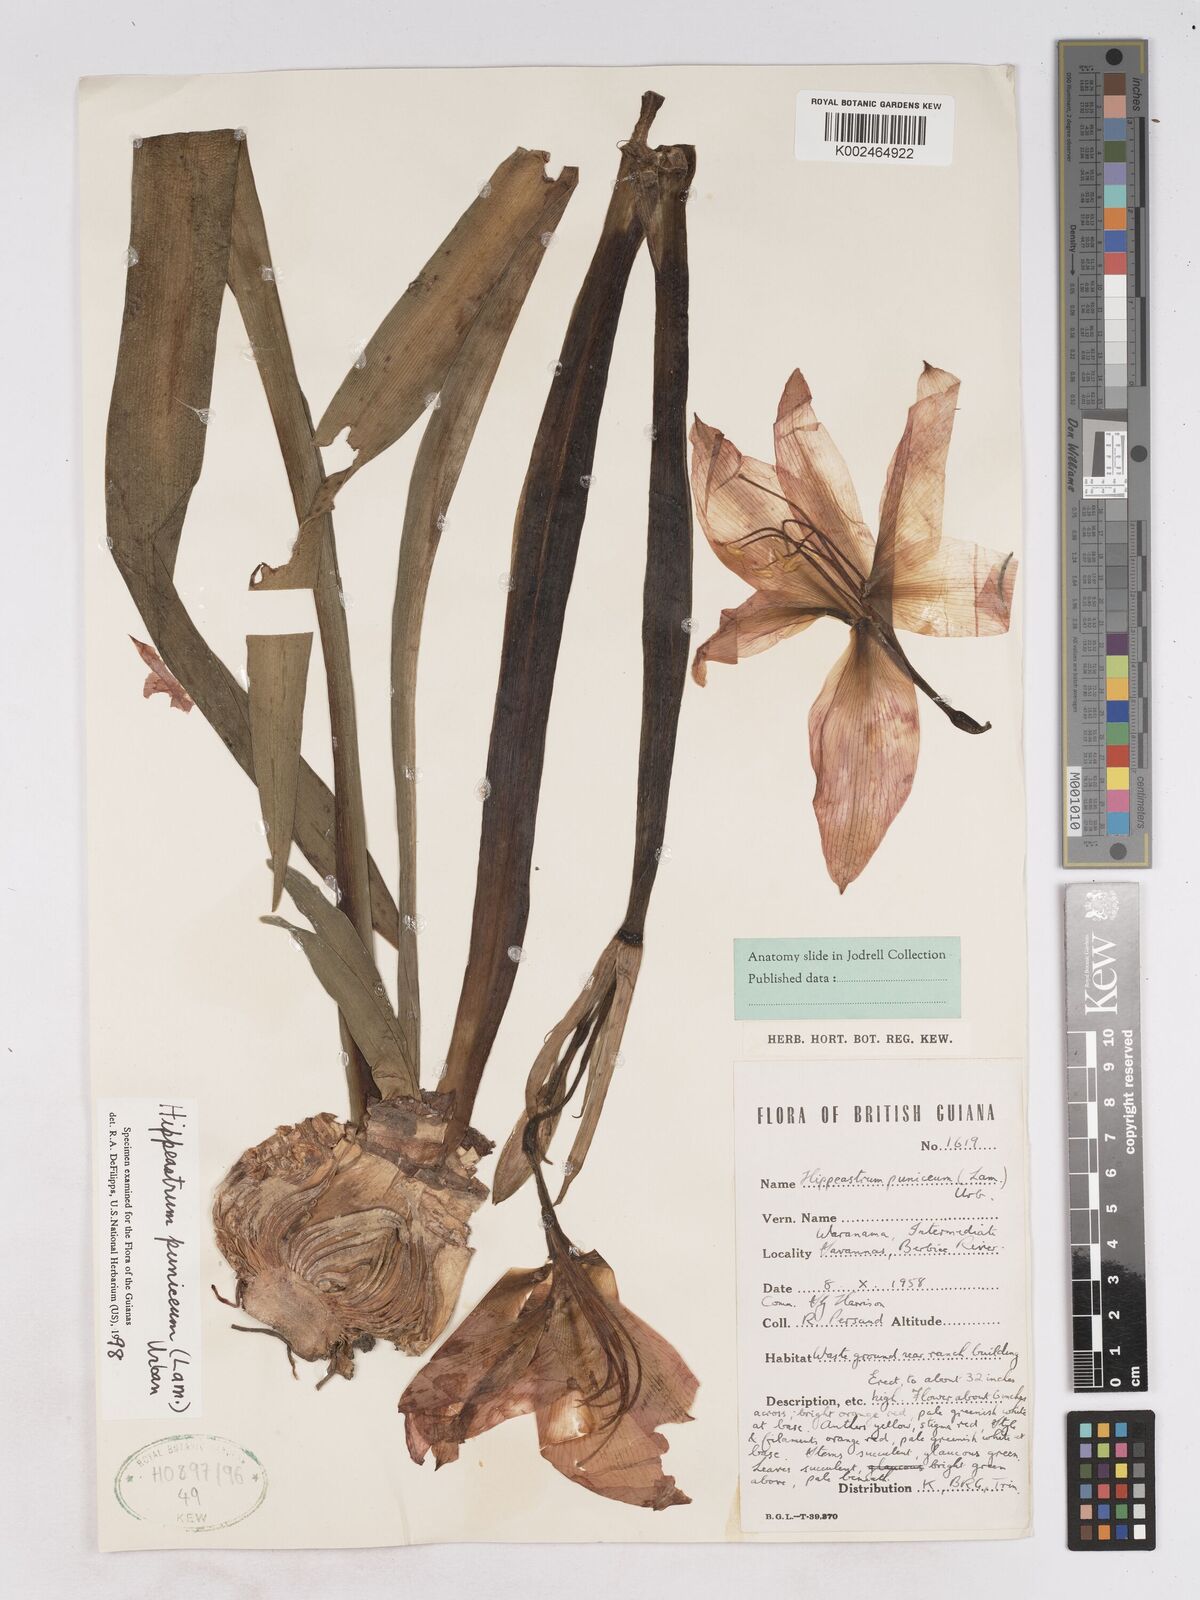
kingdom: Plantae
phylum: Tracheophyta
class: Liliopsida
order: Asparagales
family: Amaryllidaceae
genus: Hippeastrum
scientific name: Hippeastrum puniceum
